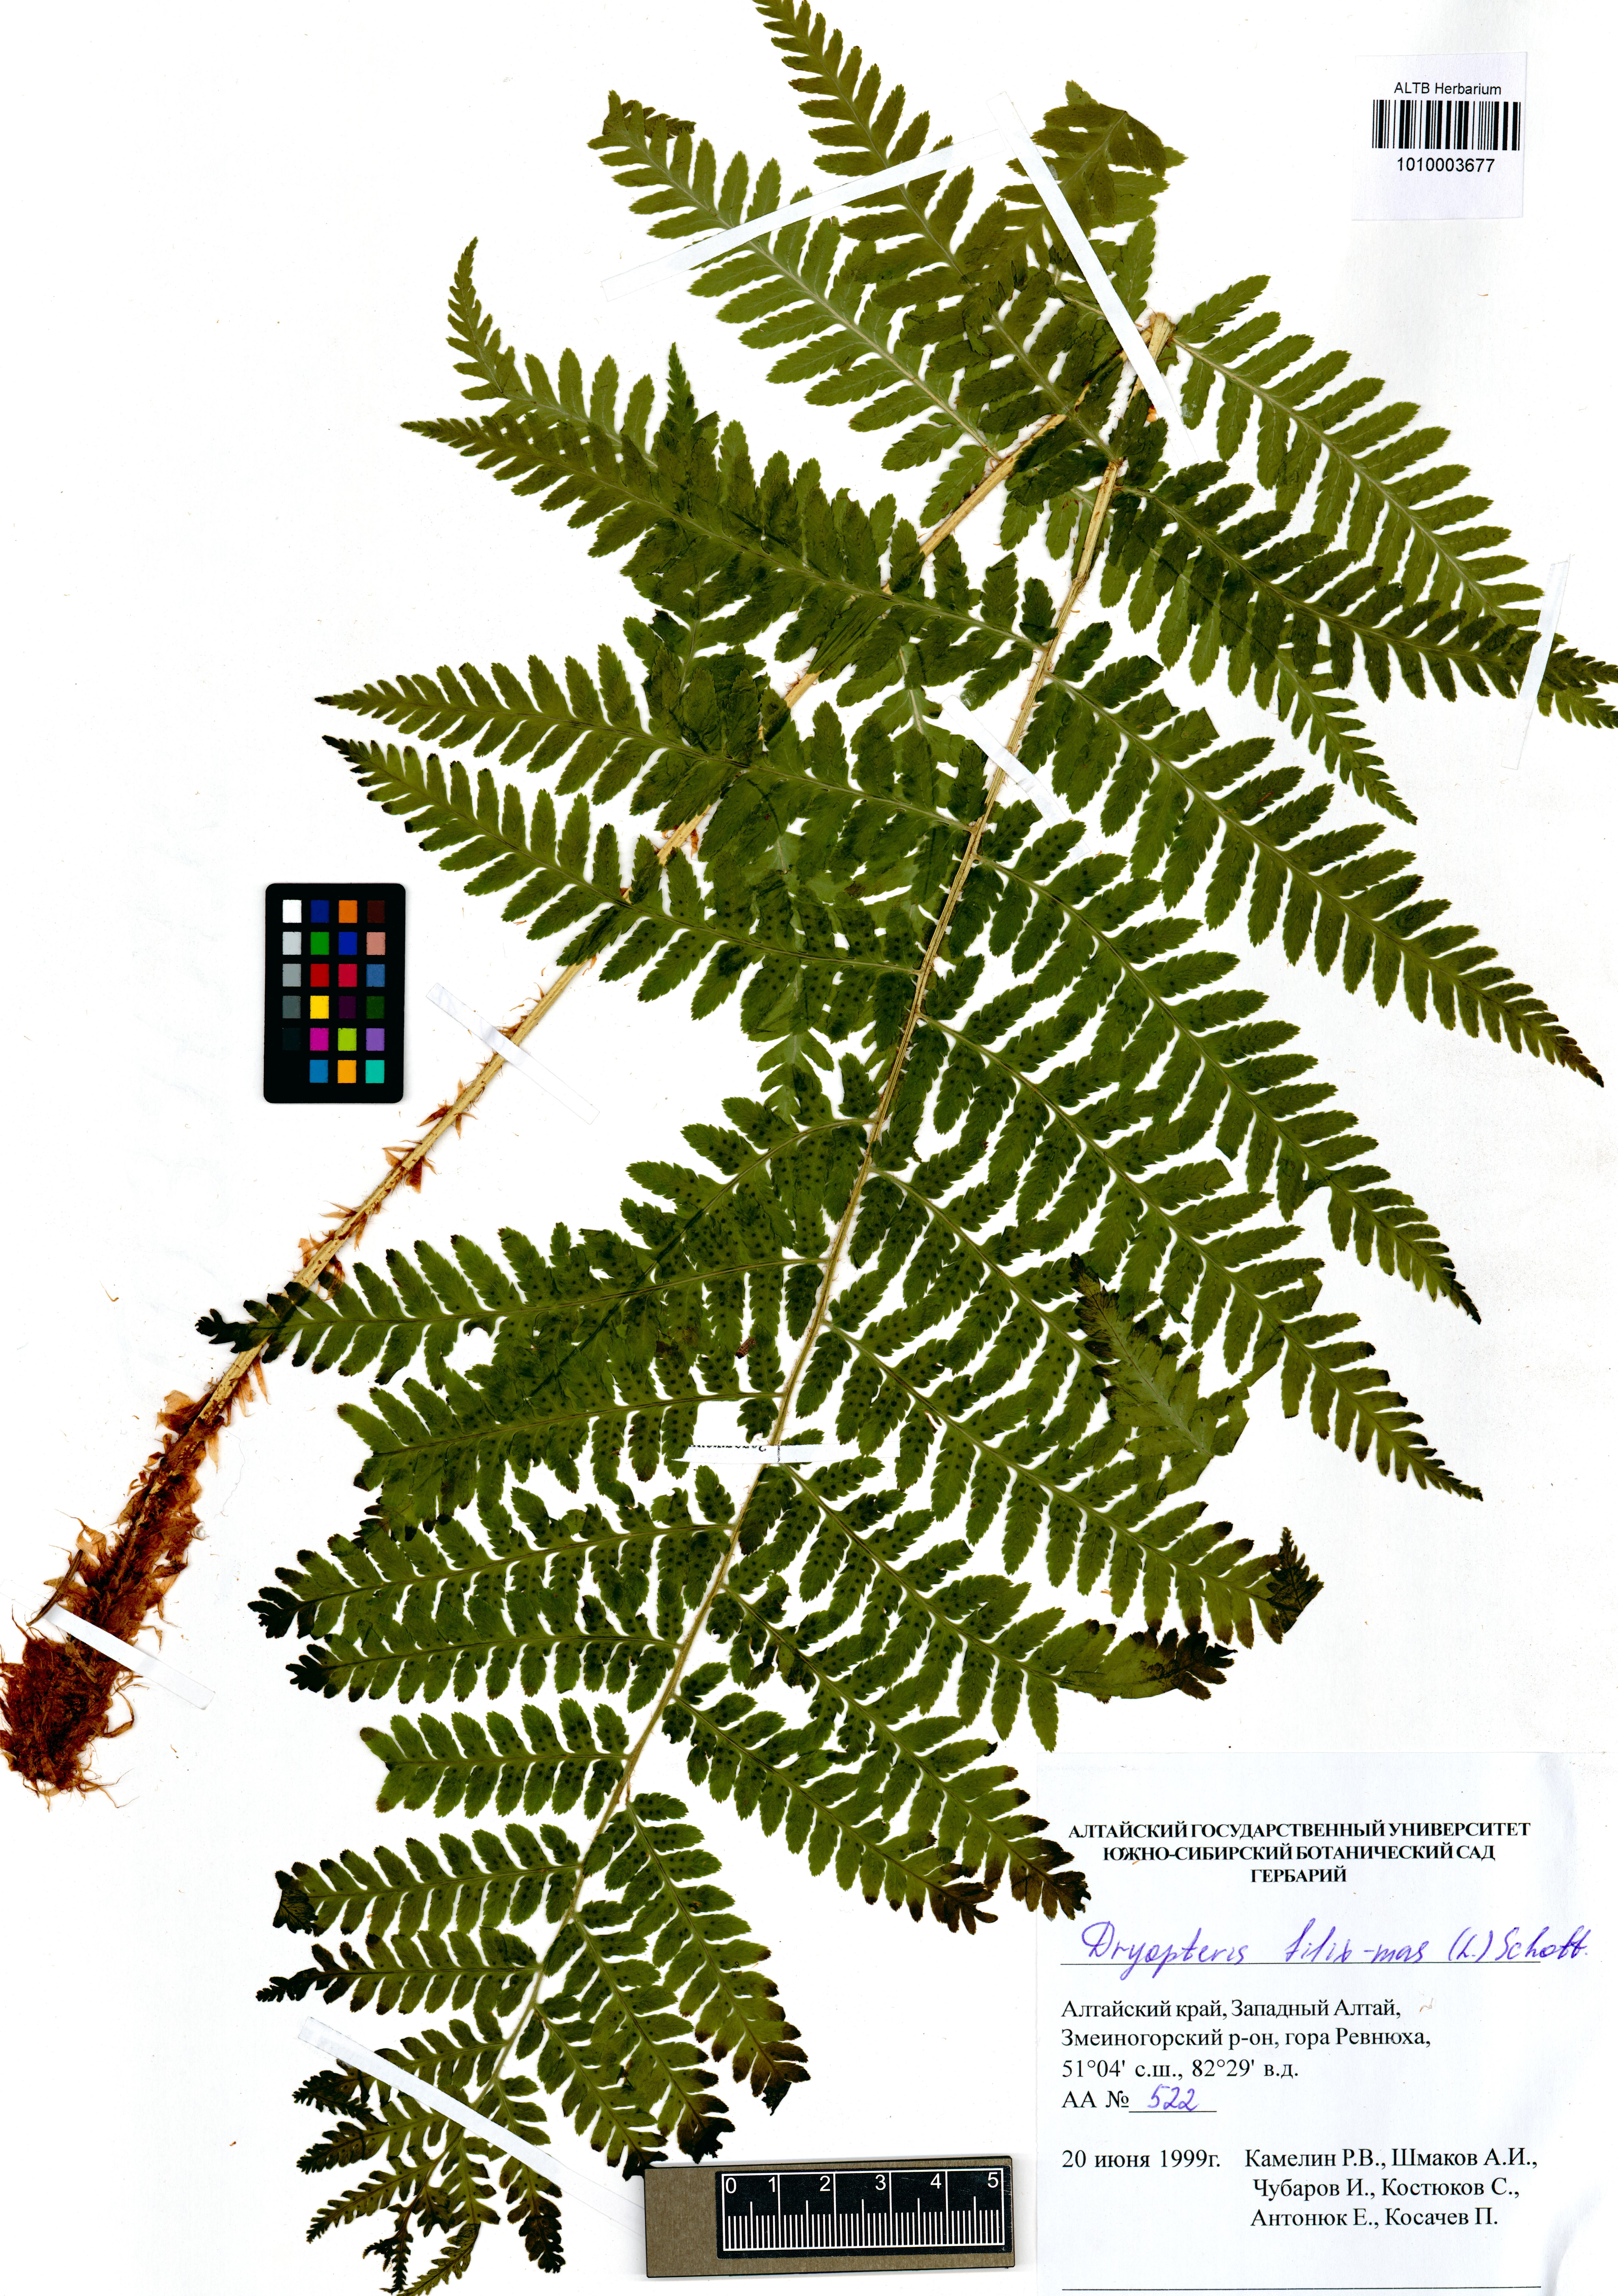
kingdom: Plantae
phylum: Tracheophyta
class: Polypodiopsida
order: Polypodiales
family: Dryopteridaceae
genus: Dryopteris
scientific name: Dryopteris filix-mas
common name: Male fern
